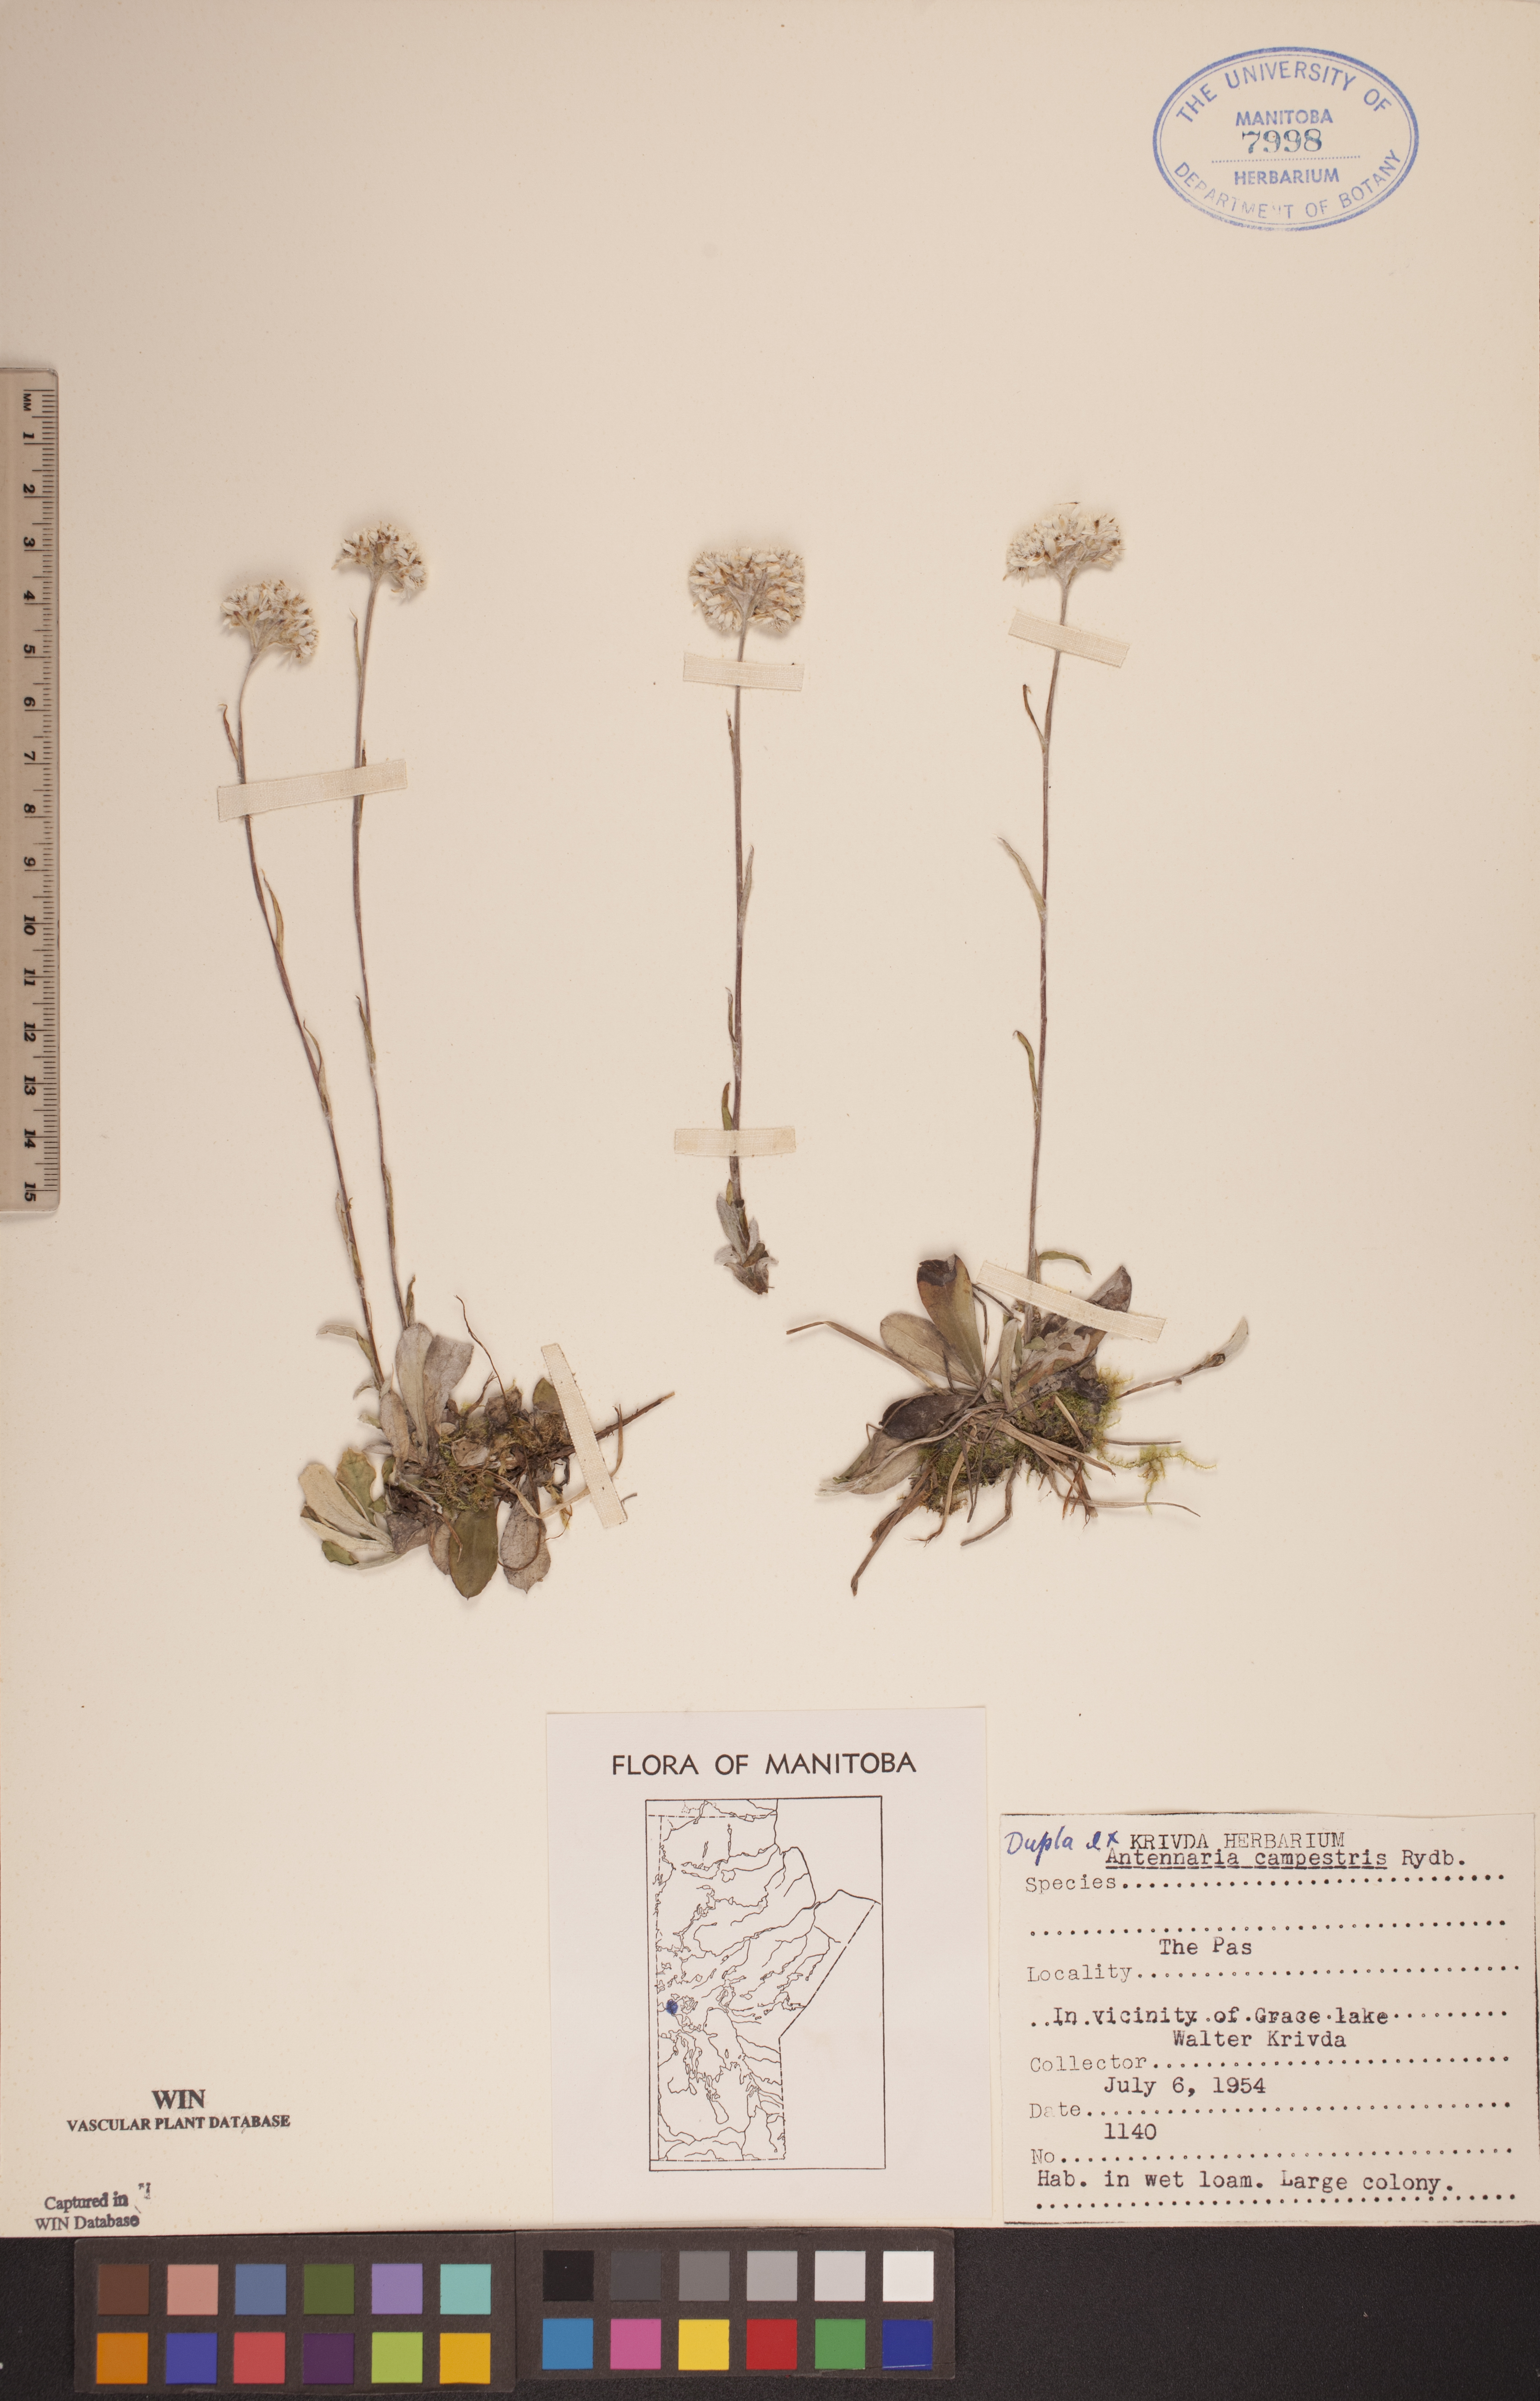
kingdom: Plantae
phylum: Tracheophyta
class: Magnoliopsida
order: Asterales
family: Asteraceae
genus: Antennaria
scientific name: Antennaria neglecta
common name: Field pussytoes
